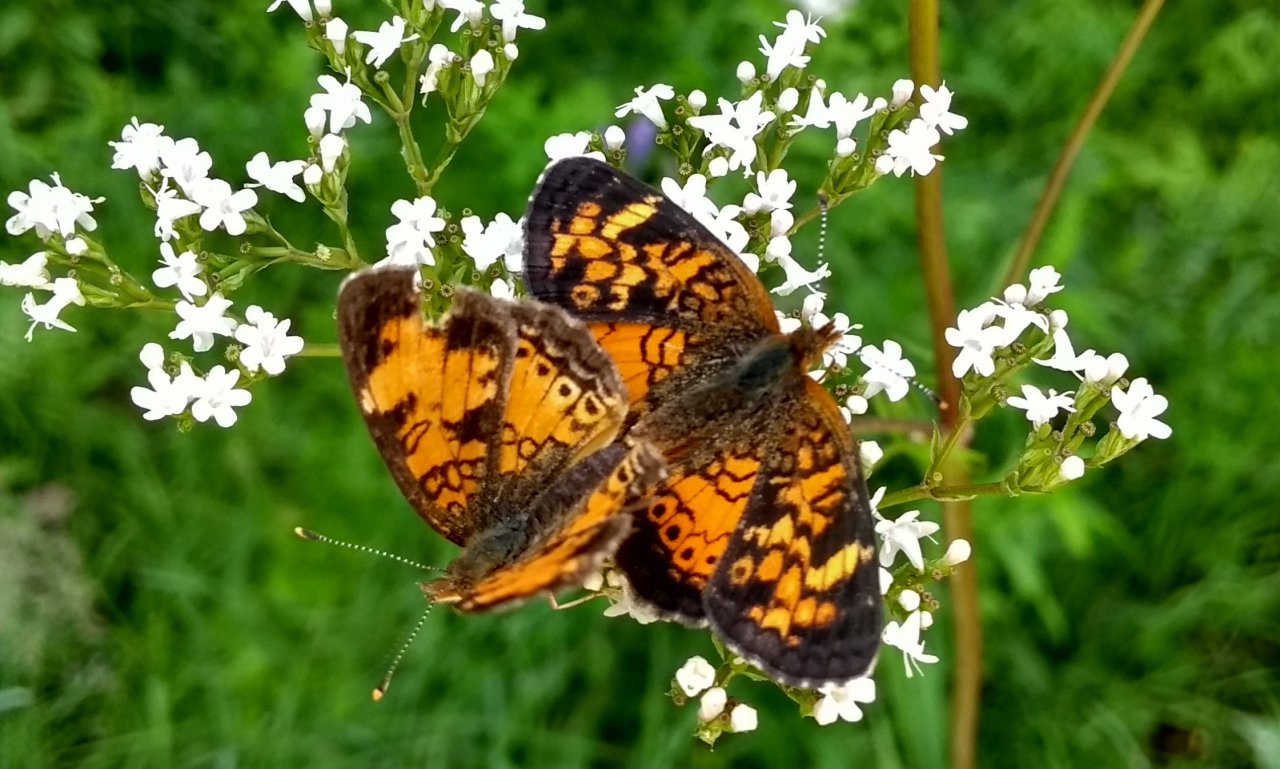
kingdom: Animalia
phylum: Arthropoda
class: Insecta
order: Lepidoptera
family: Nymphalidae
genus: Phyciodes
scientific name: Phyciodes tharos
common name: Northern Crescent
